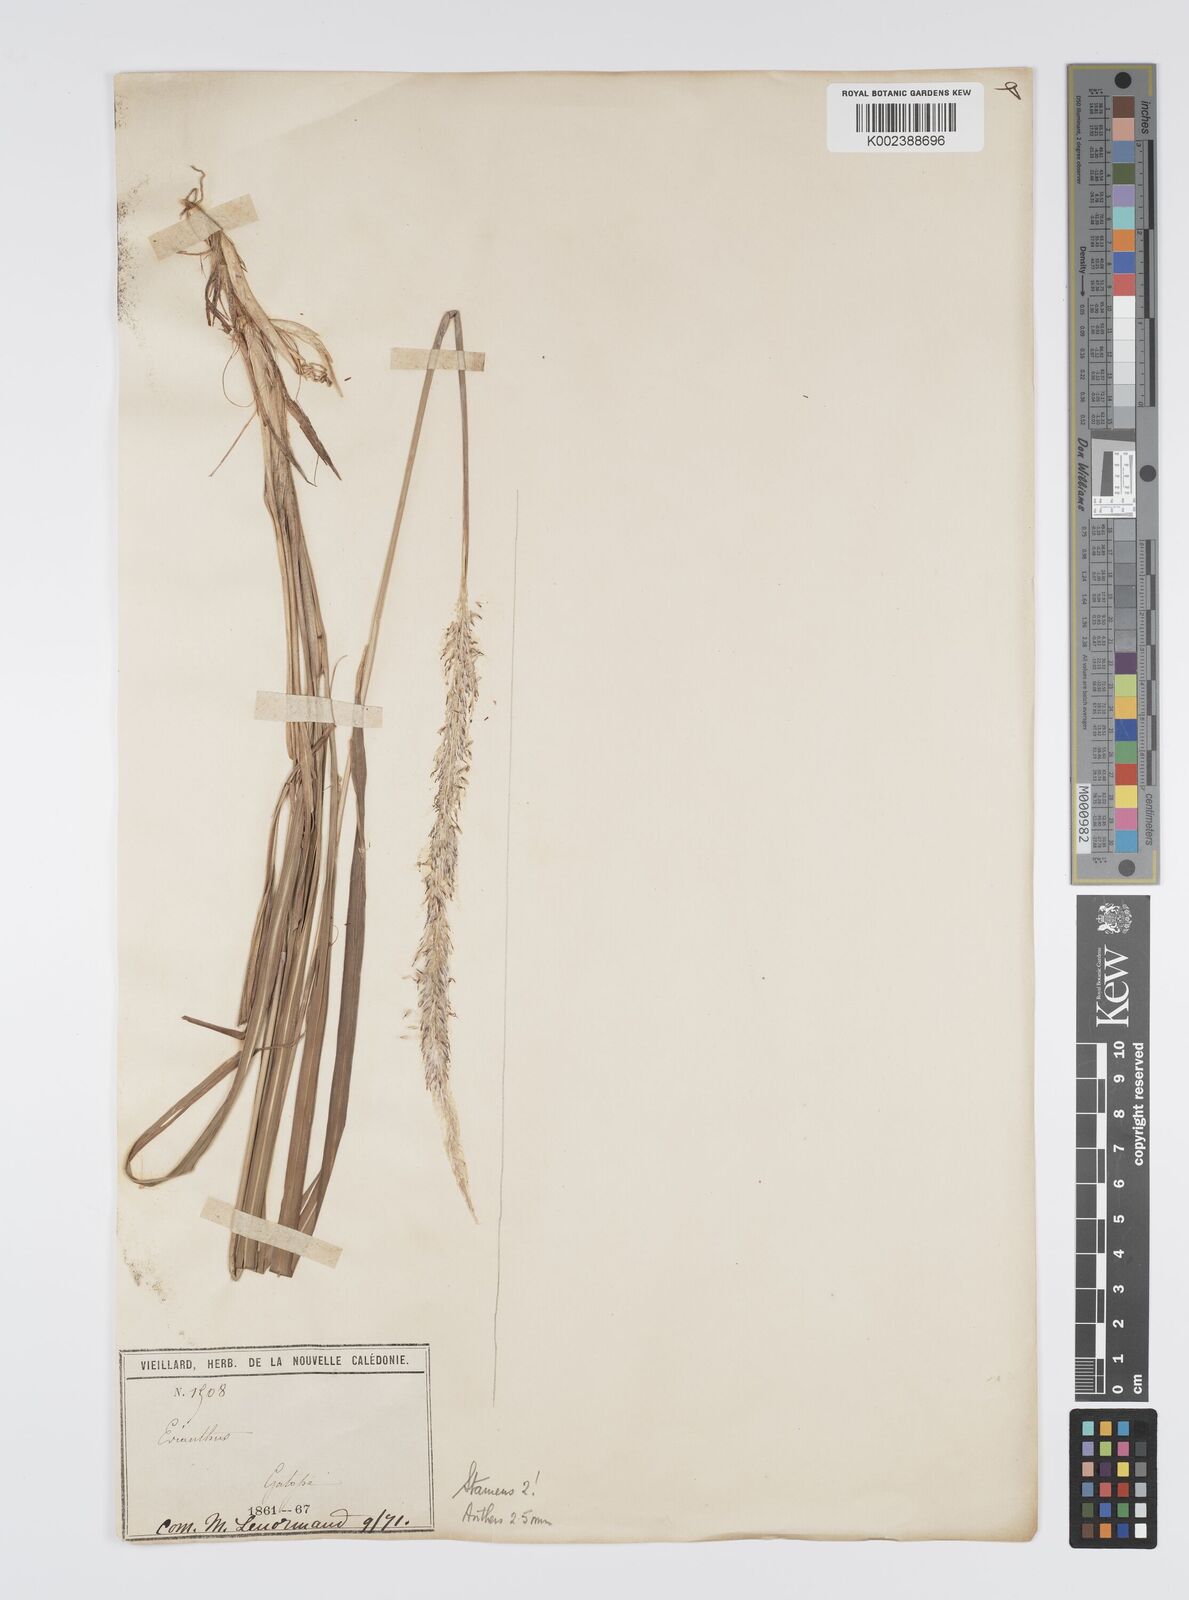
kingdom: Plantae
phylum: Tracheophyta
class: Liliopsida
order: Poales
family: Poaceae
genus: Imperata
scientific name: Imperata cylindrica
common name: Cogongrass
